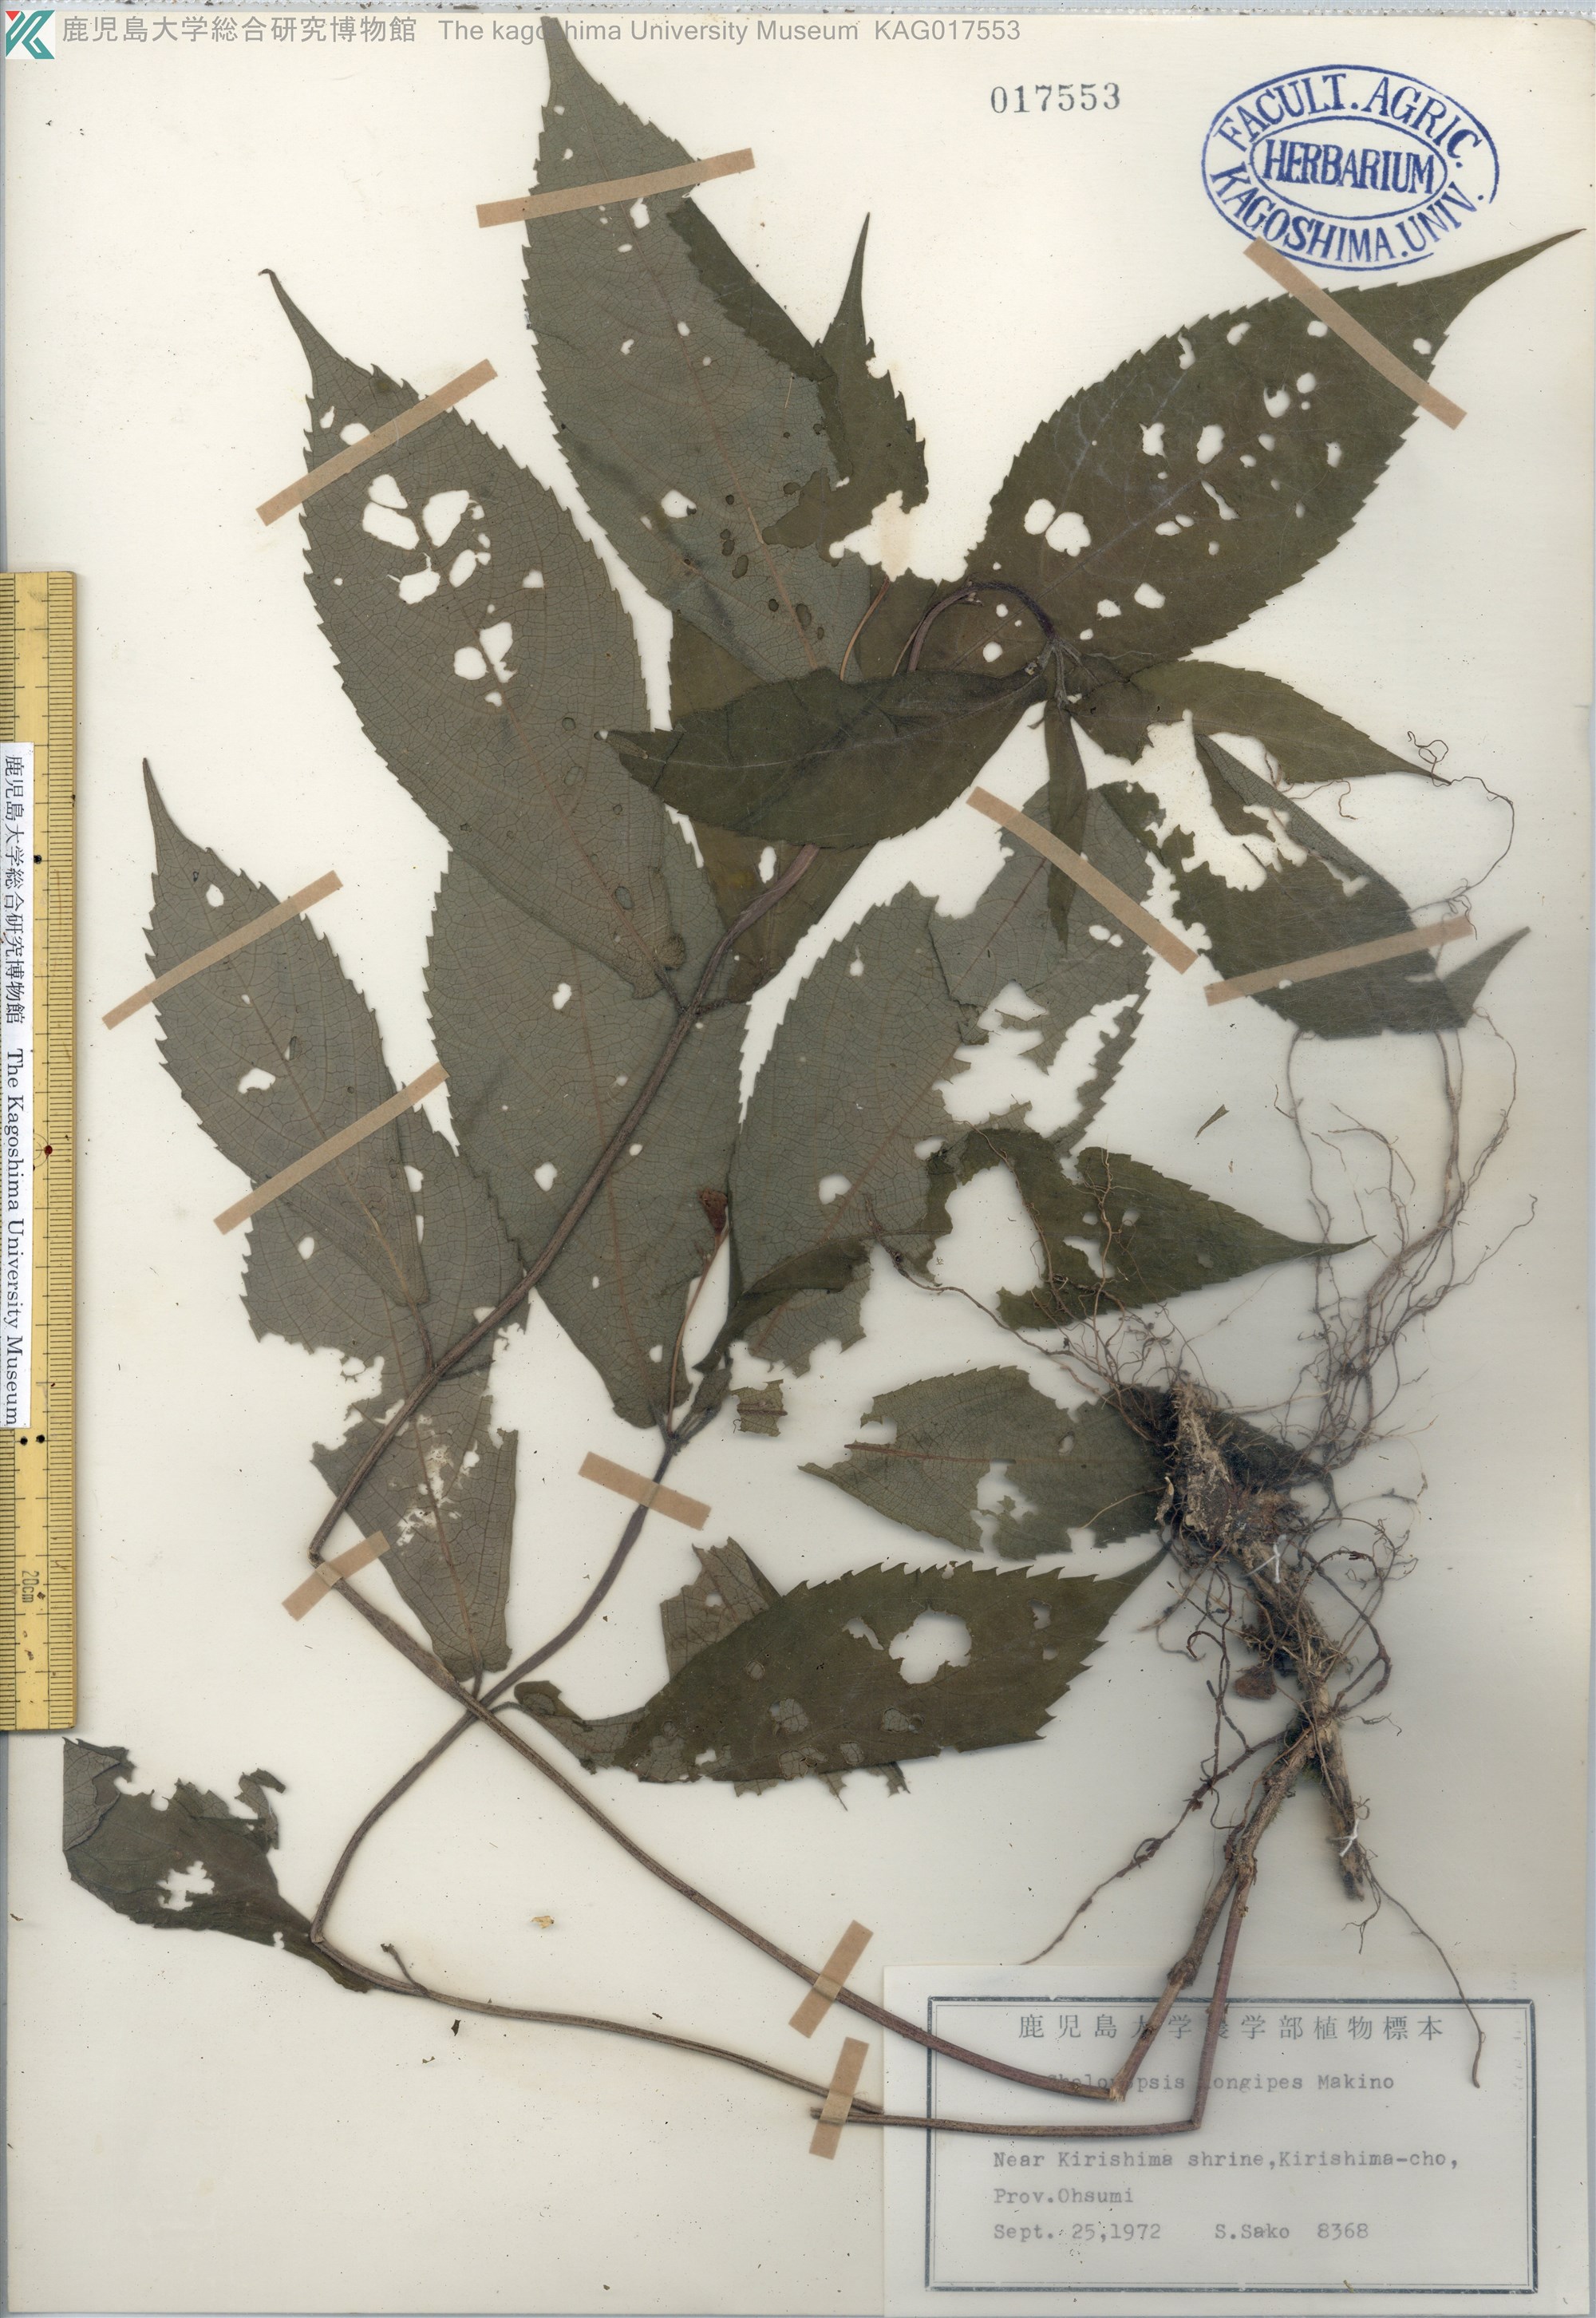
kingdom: Plantae
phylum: Tracheophyta
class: Magnoliopsida
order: Lamiales
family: Lamiaceae
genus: Chelonopsis
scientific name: Chelonopsis longipes
